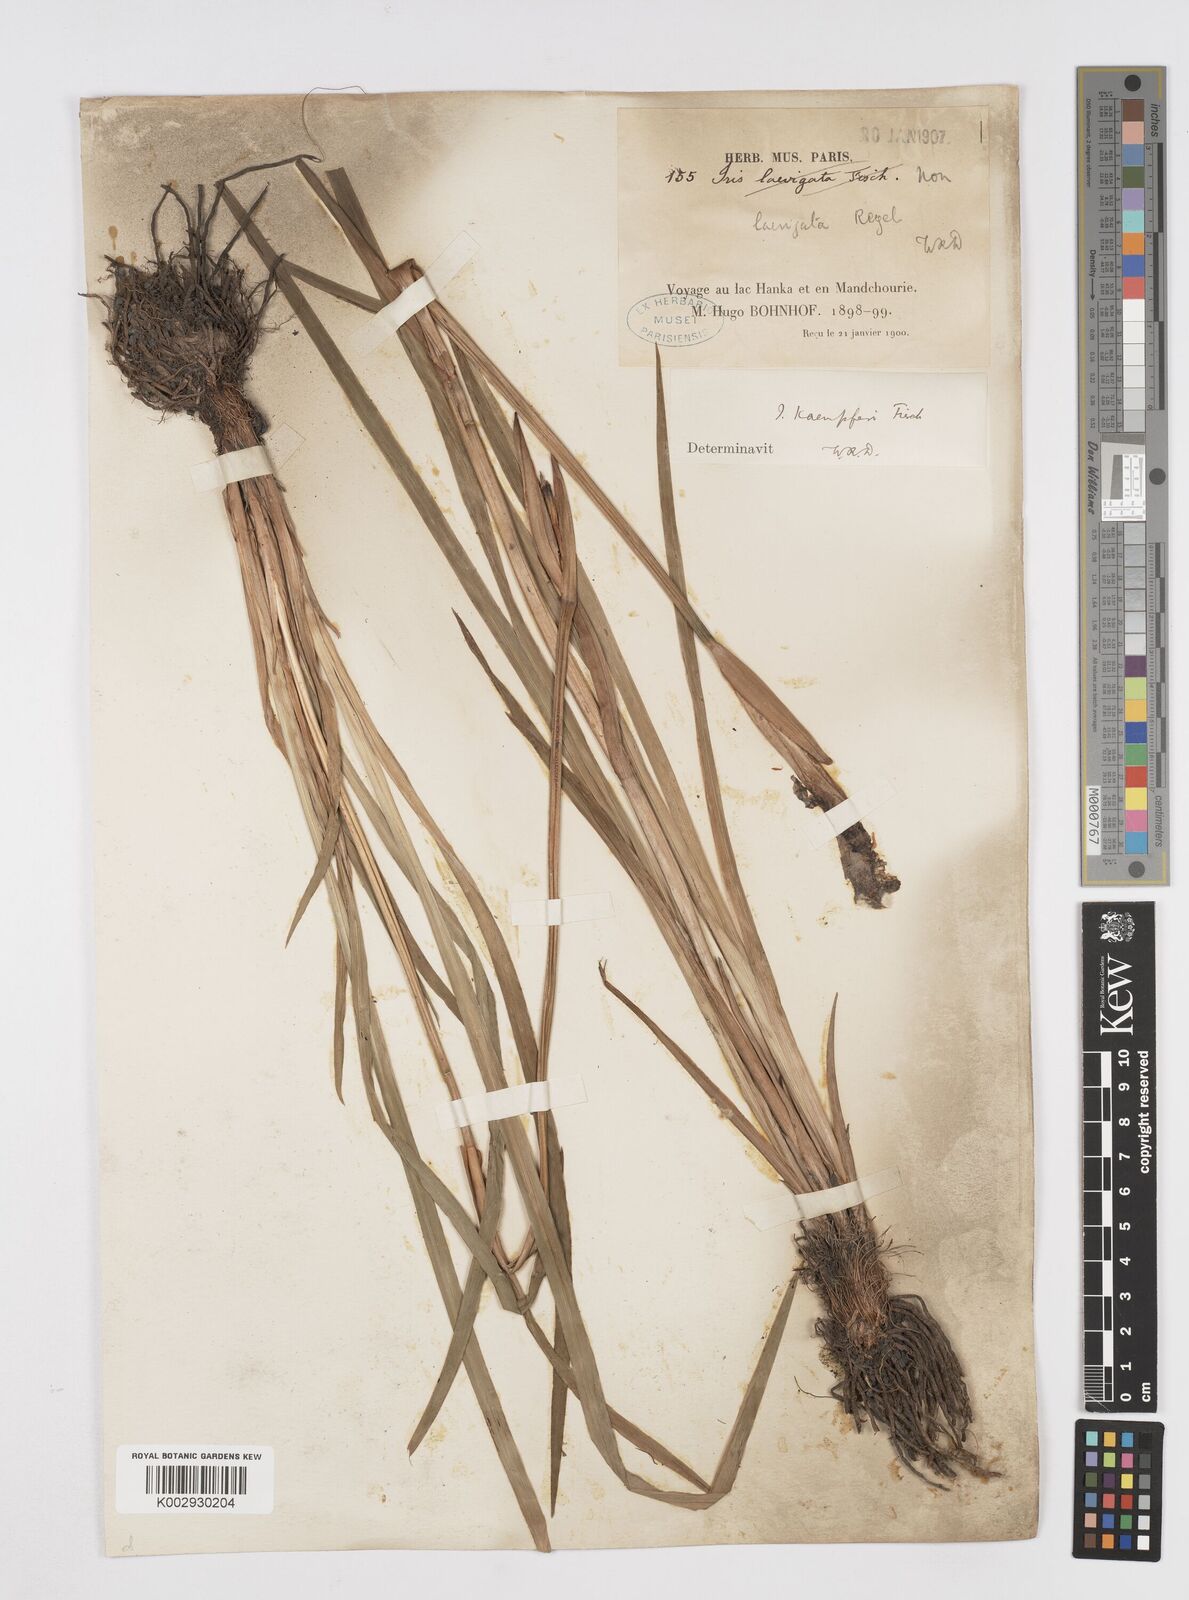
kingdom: Plantae
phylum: Tracheophyta
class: Liliopsida
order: Asparagales
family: Iridaceae
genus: Iris
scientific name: Iris ensata
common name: Beaked iris
